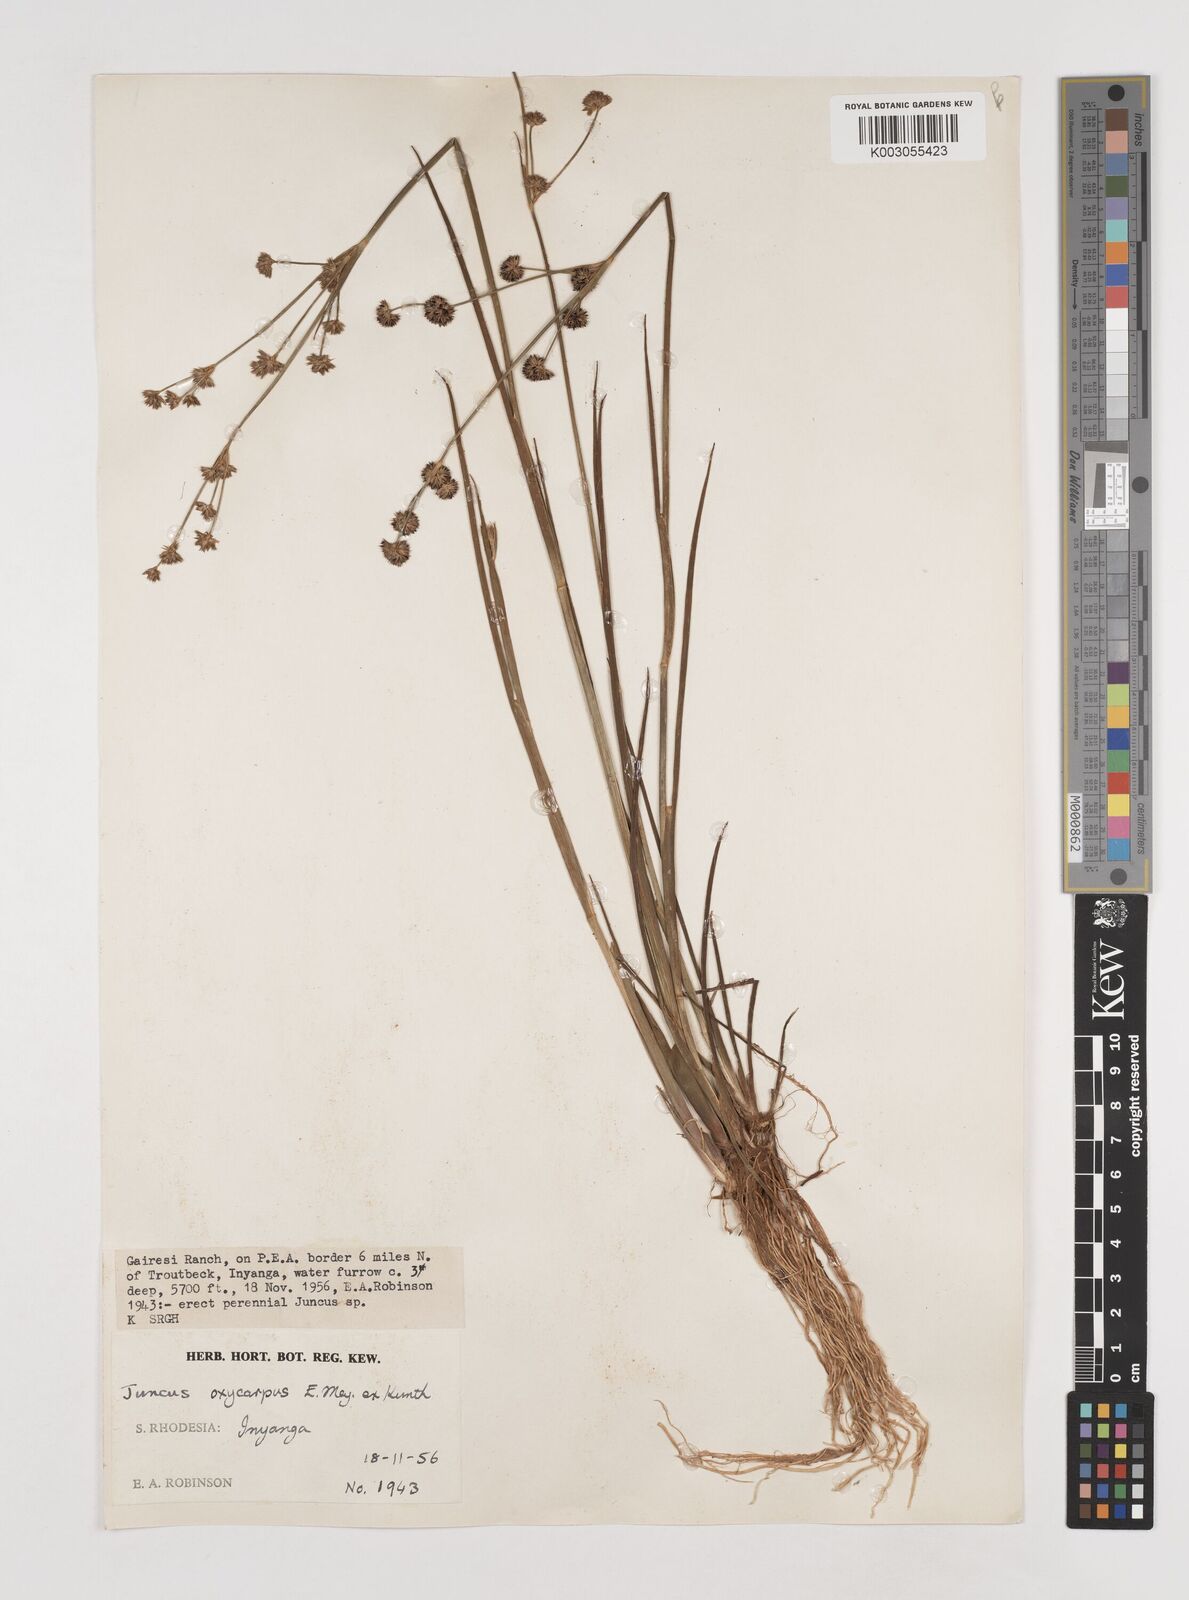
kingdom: Plantae
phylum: Tracheophyta
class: Liliopsida
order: Poales
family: Juncaceae
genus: Juncus
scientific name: Juncus oxycarpus
